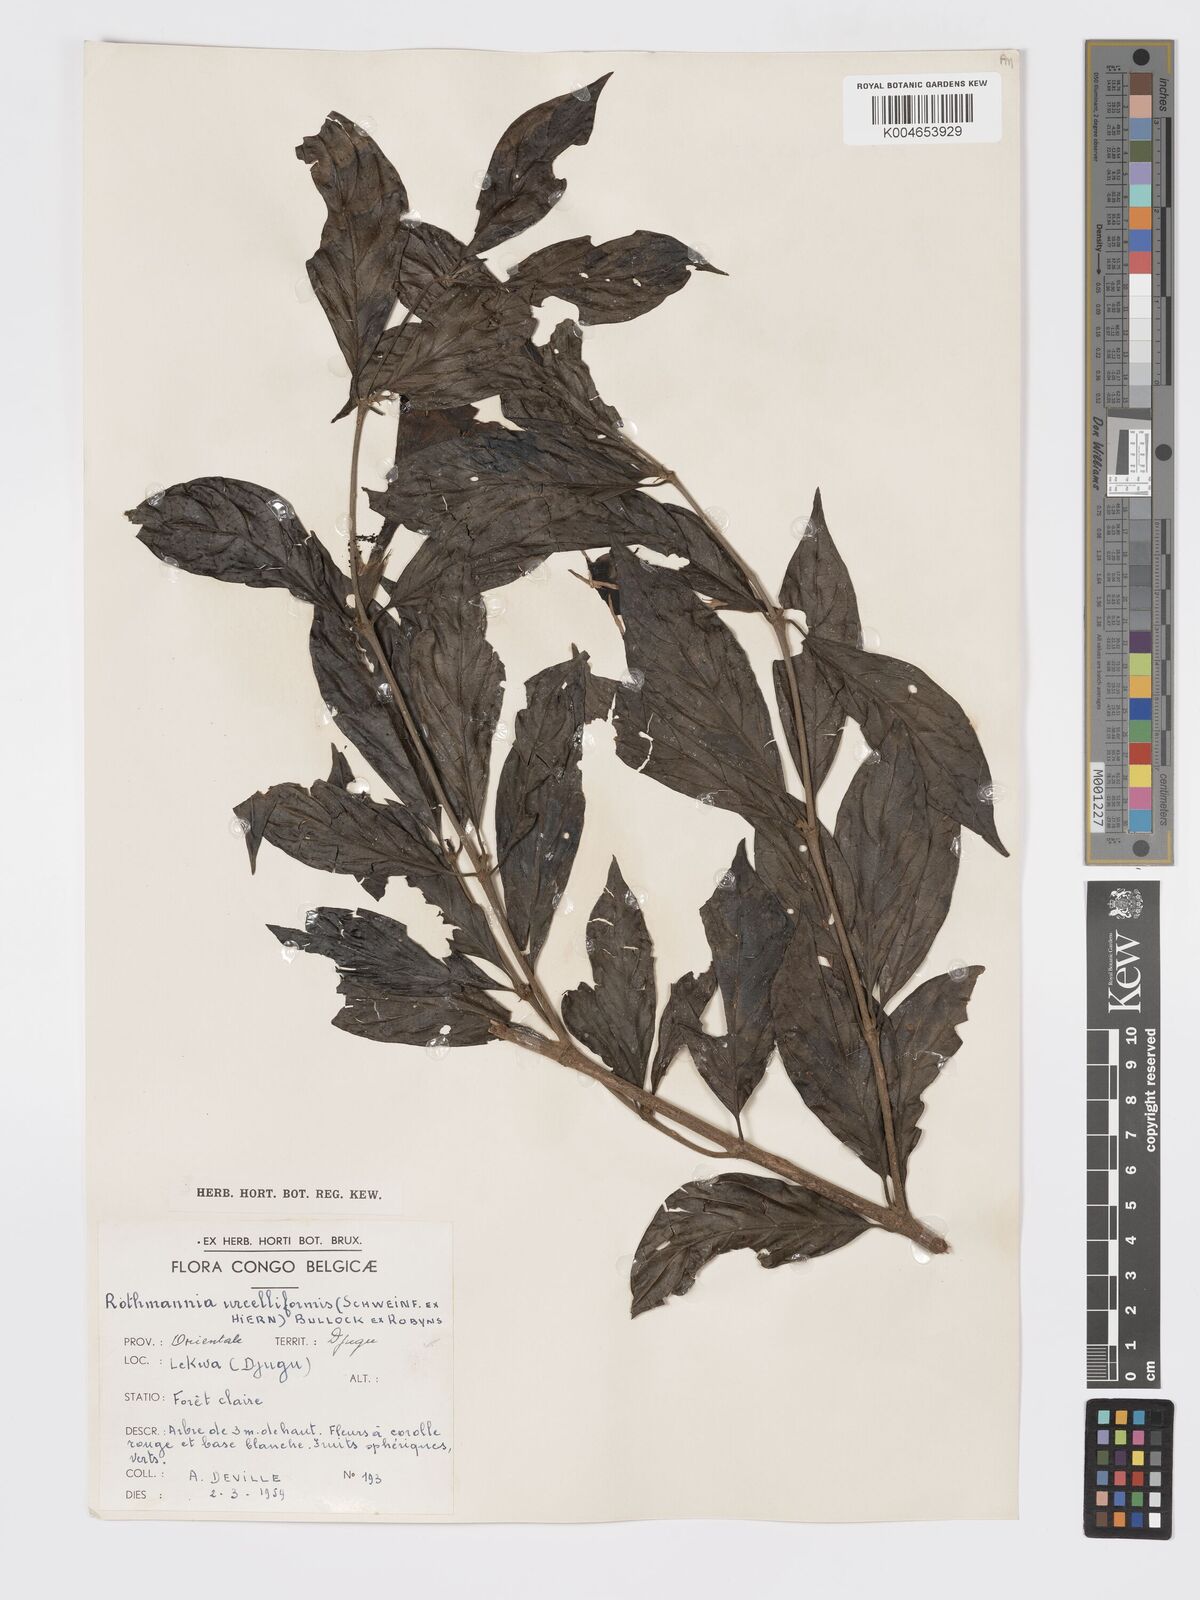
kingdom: Plantae
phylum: Tracheophyta
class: Magnoliopsida
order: Gentianales
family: Rubiaceae
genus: Rothmannia
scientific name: Rothmannia urcelliformis
